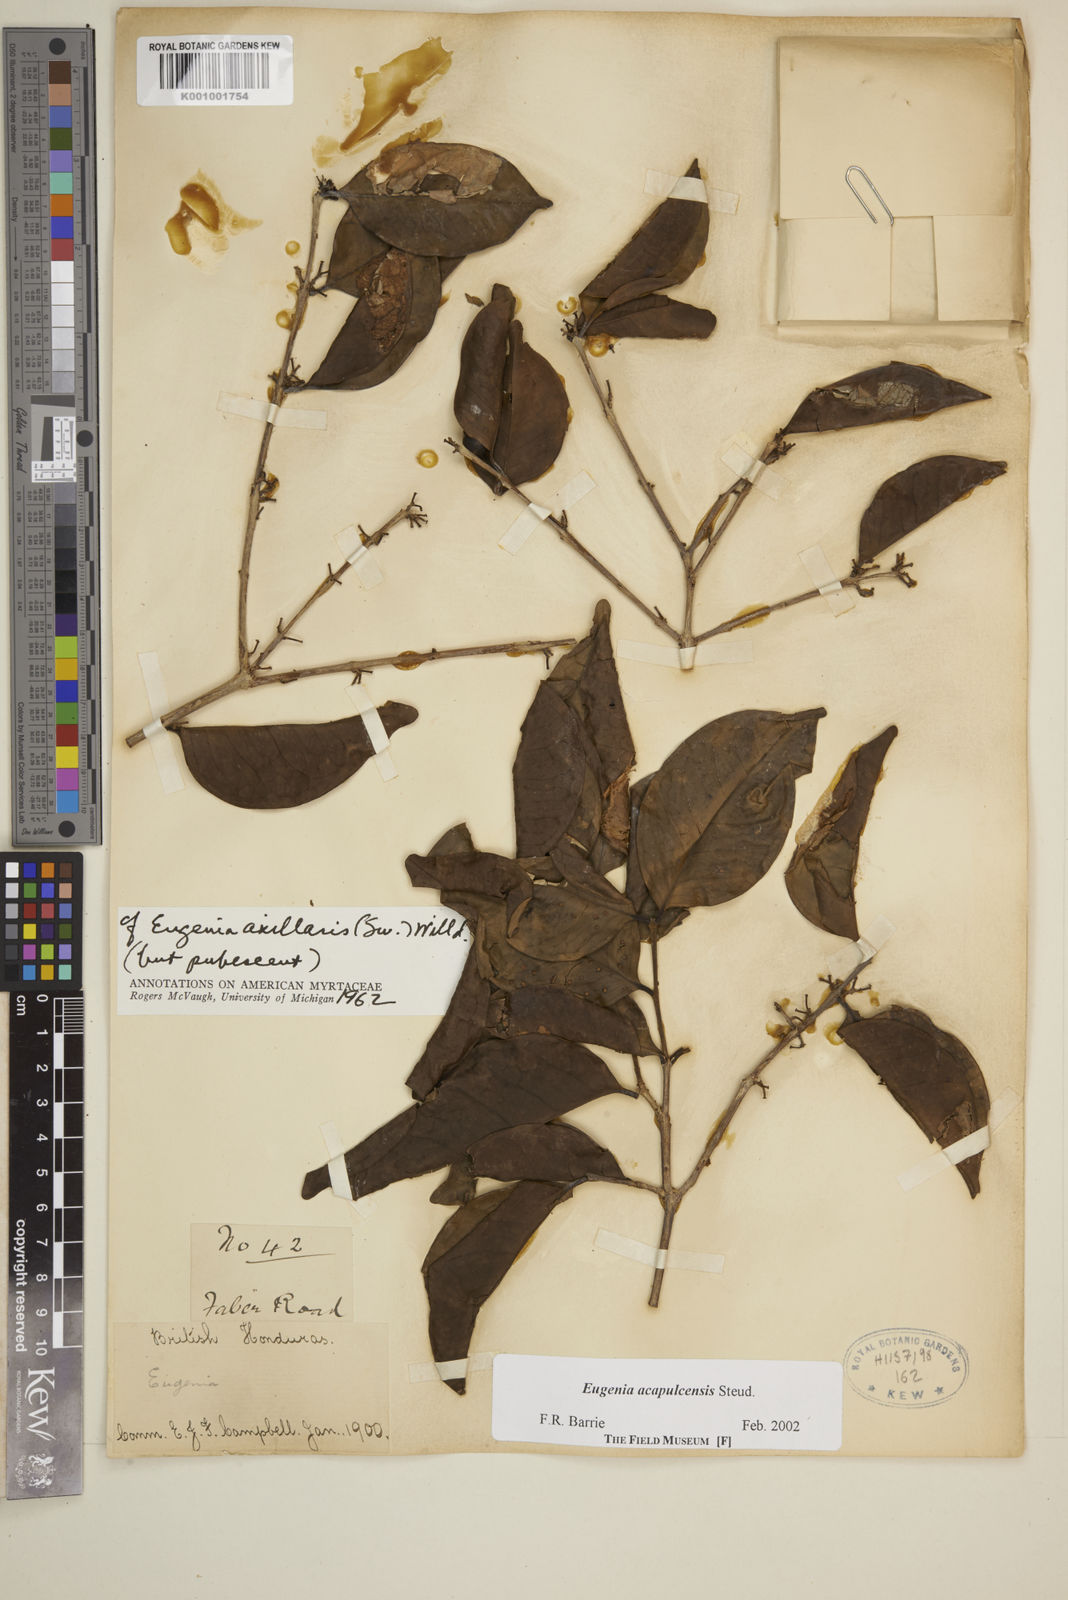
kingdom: Plantae
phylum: Tracheophyta
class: Magnoliopsida
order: Myrtales
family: Myrtaceae
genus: Eugenia
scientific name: Eugenia acapulcensis
